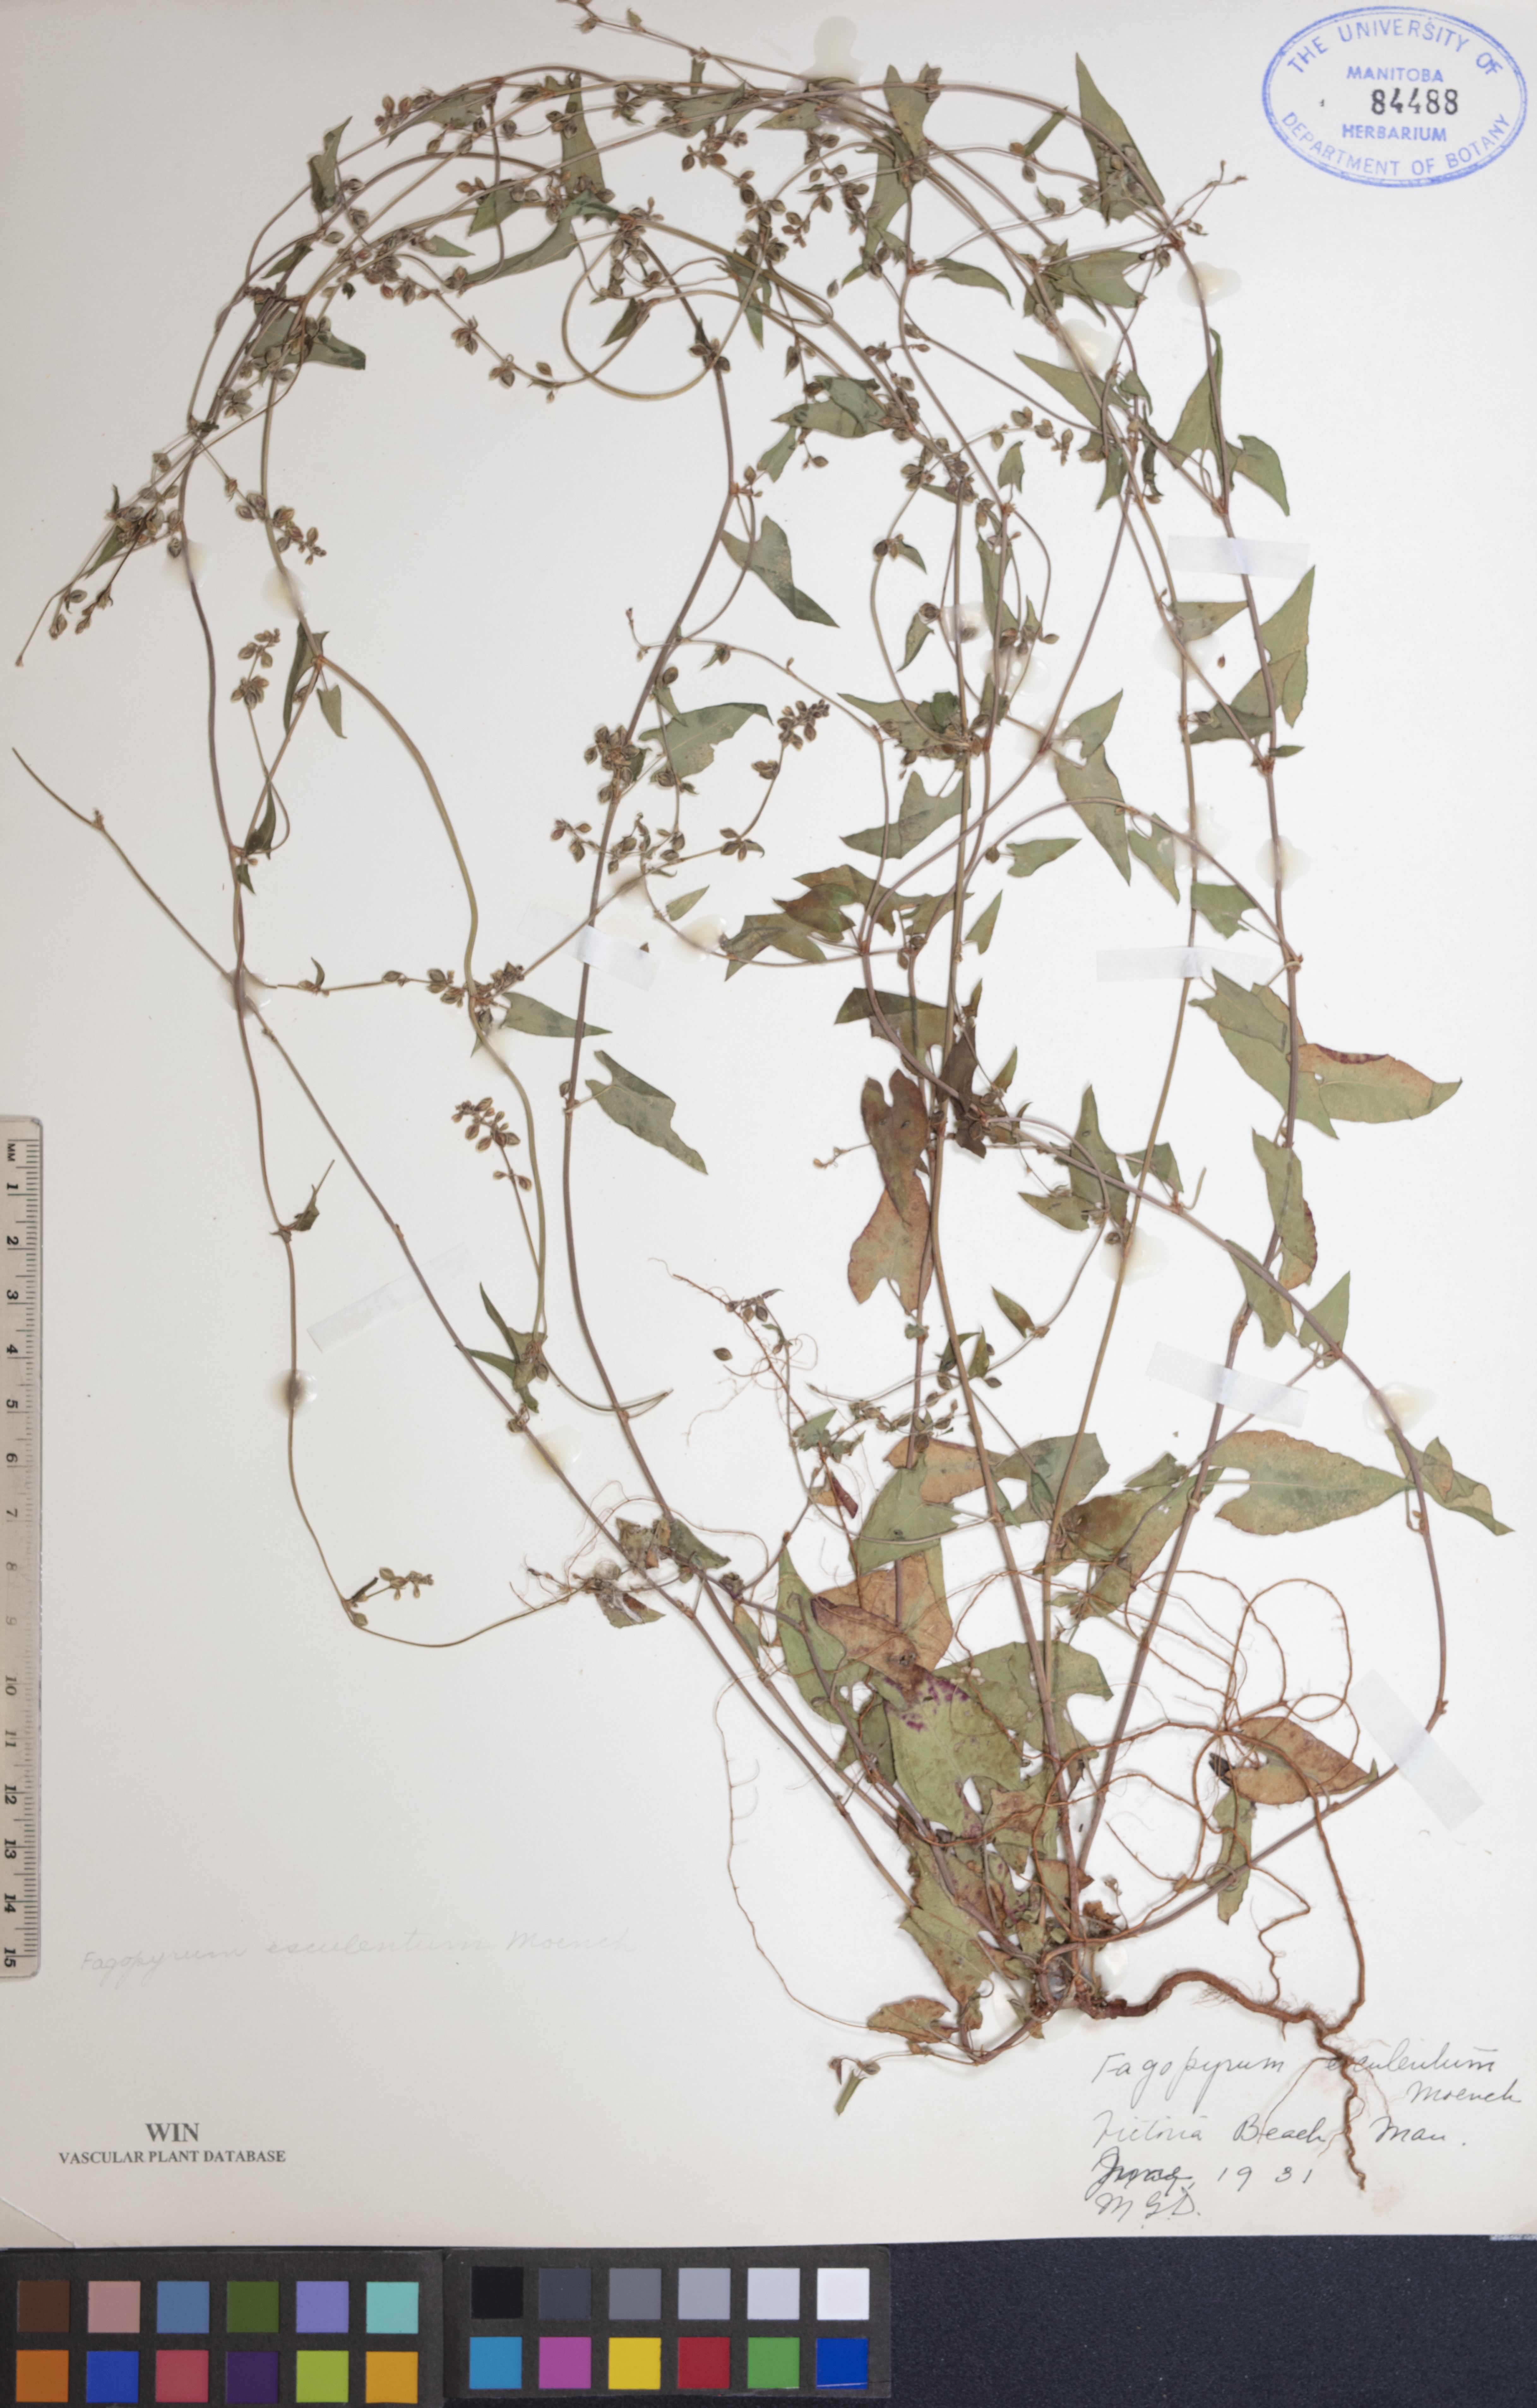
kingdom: Plantae
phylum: Tracheophyta
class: Magnoliopsida
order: Caryophyllales
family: Polygonaceae
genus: Fagopyrum
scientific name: Fagopyrum esculentum
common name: Buckwheat
